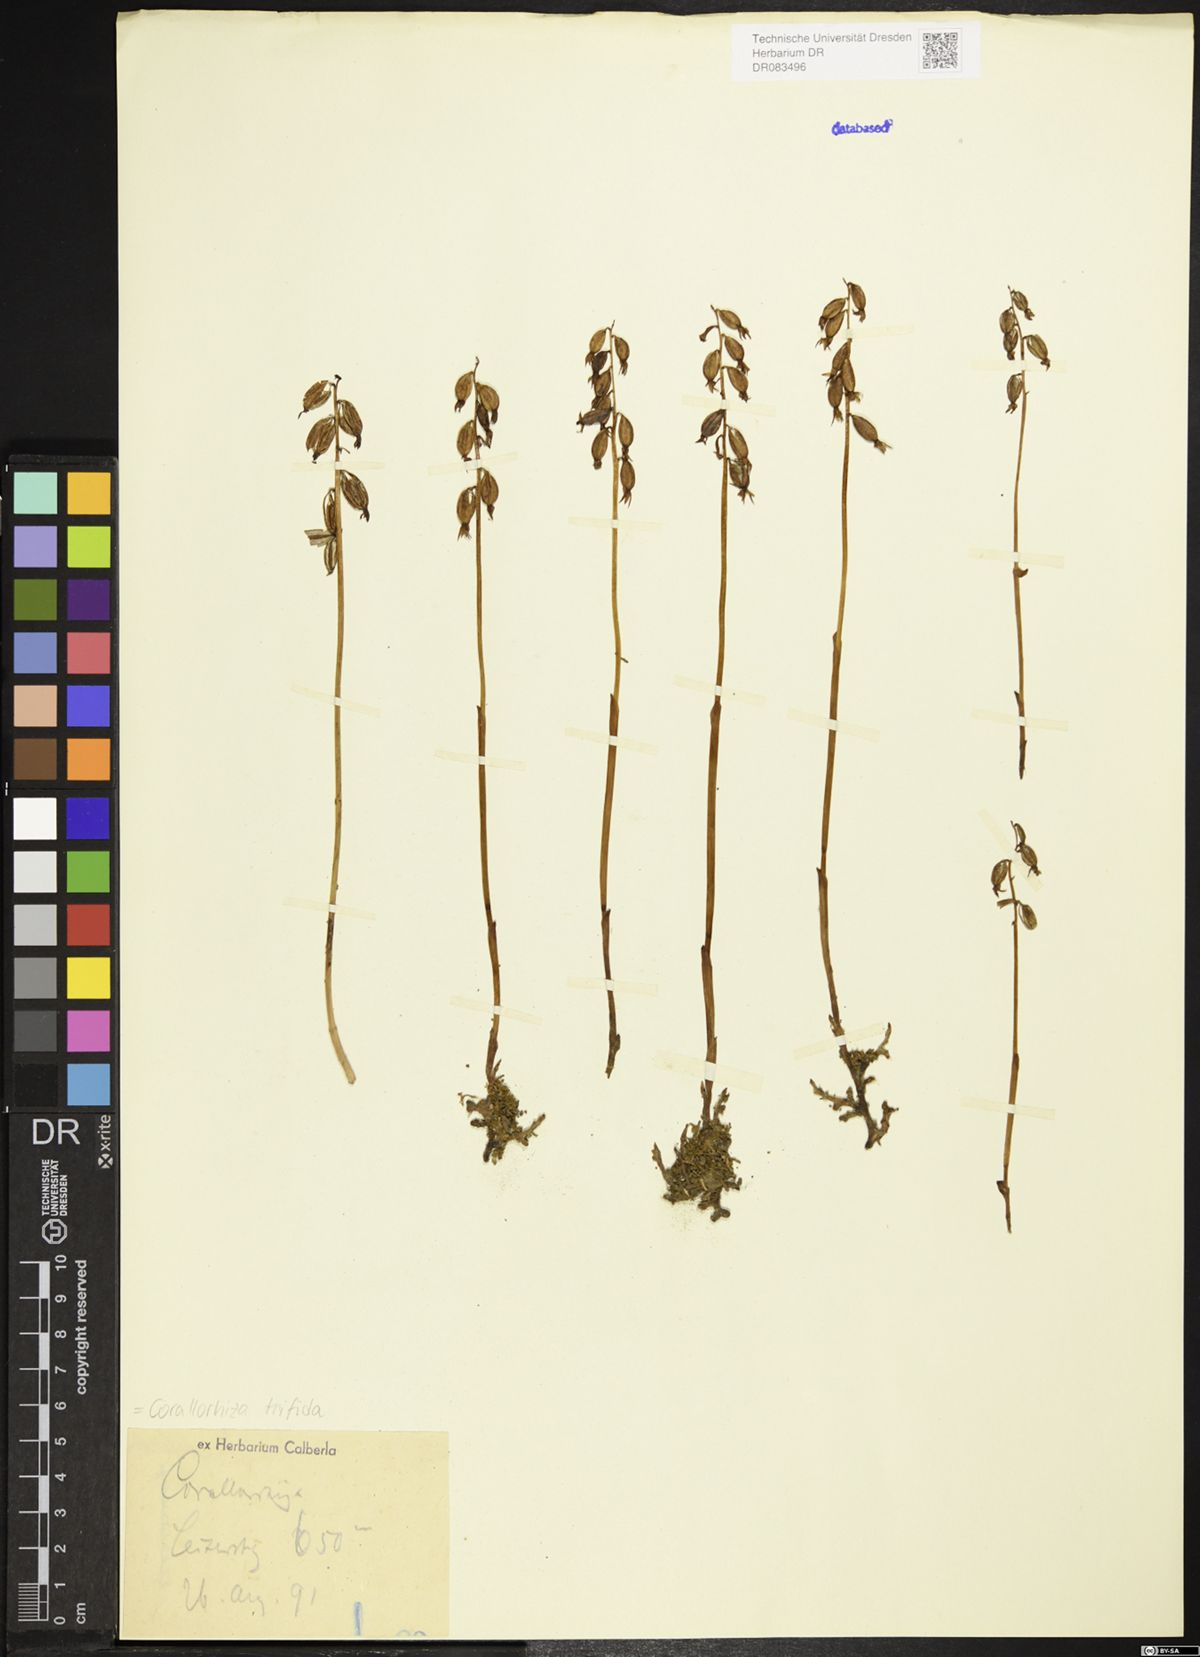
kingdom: Plantae
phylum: Tracheophyta
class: Liliopsida
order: Asparagales
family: Orchidaceae
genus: Corallorhiza
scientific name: Corallorhiza trifida
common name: Yellow coralroot
